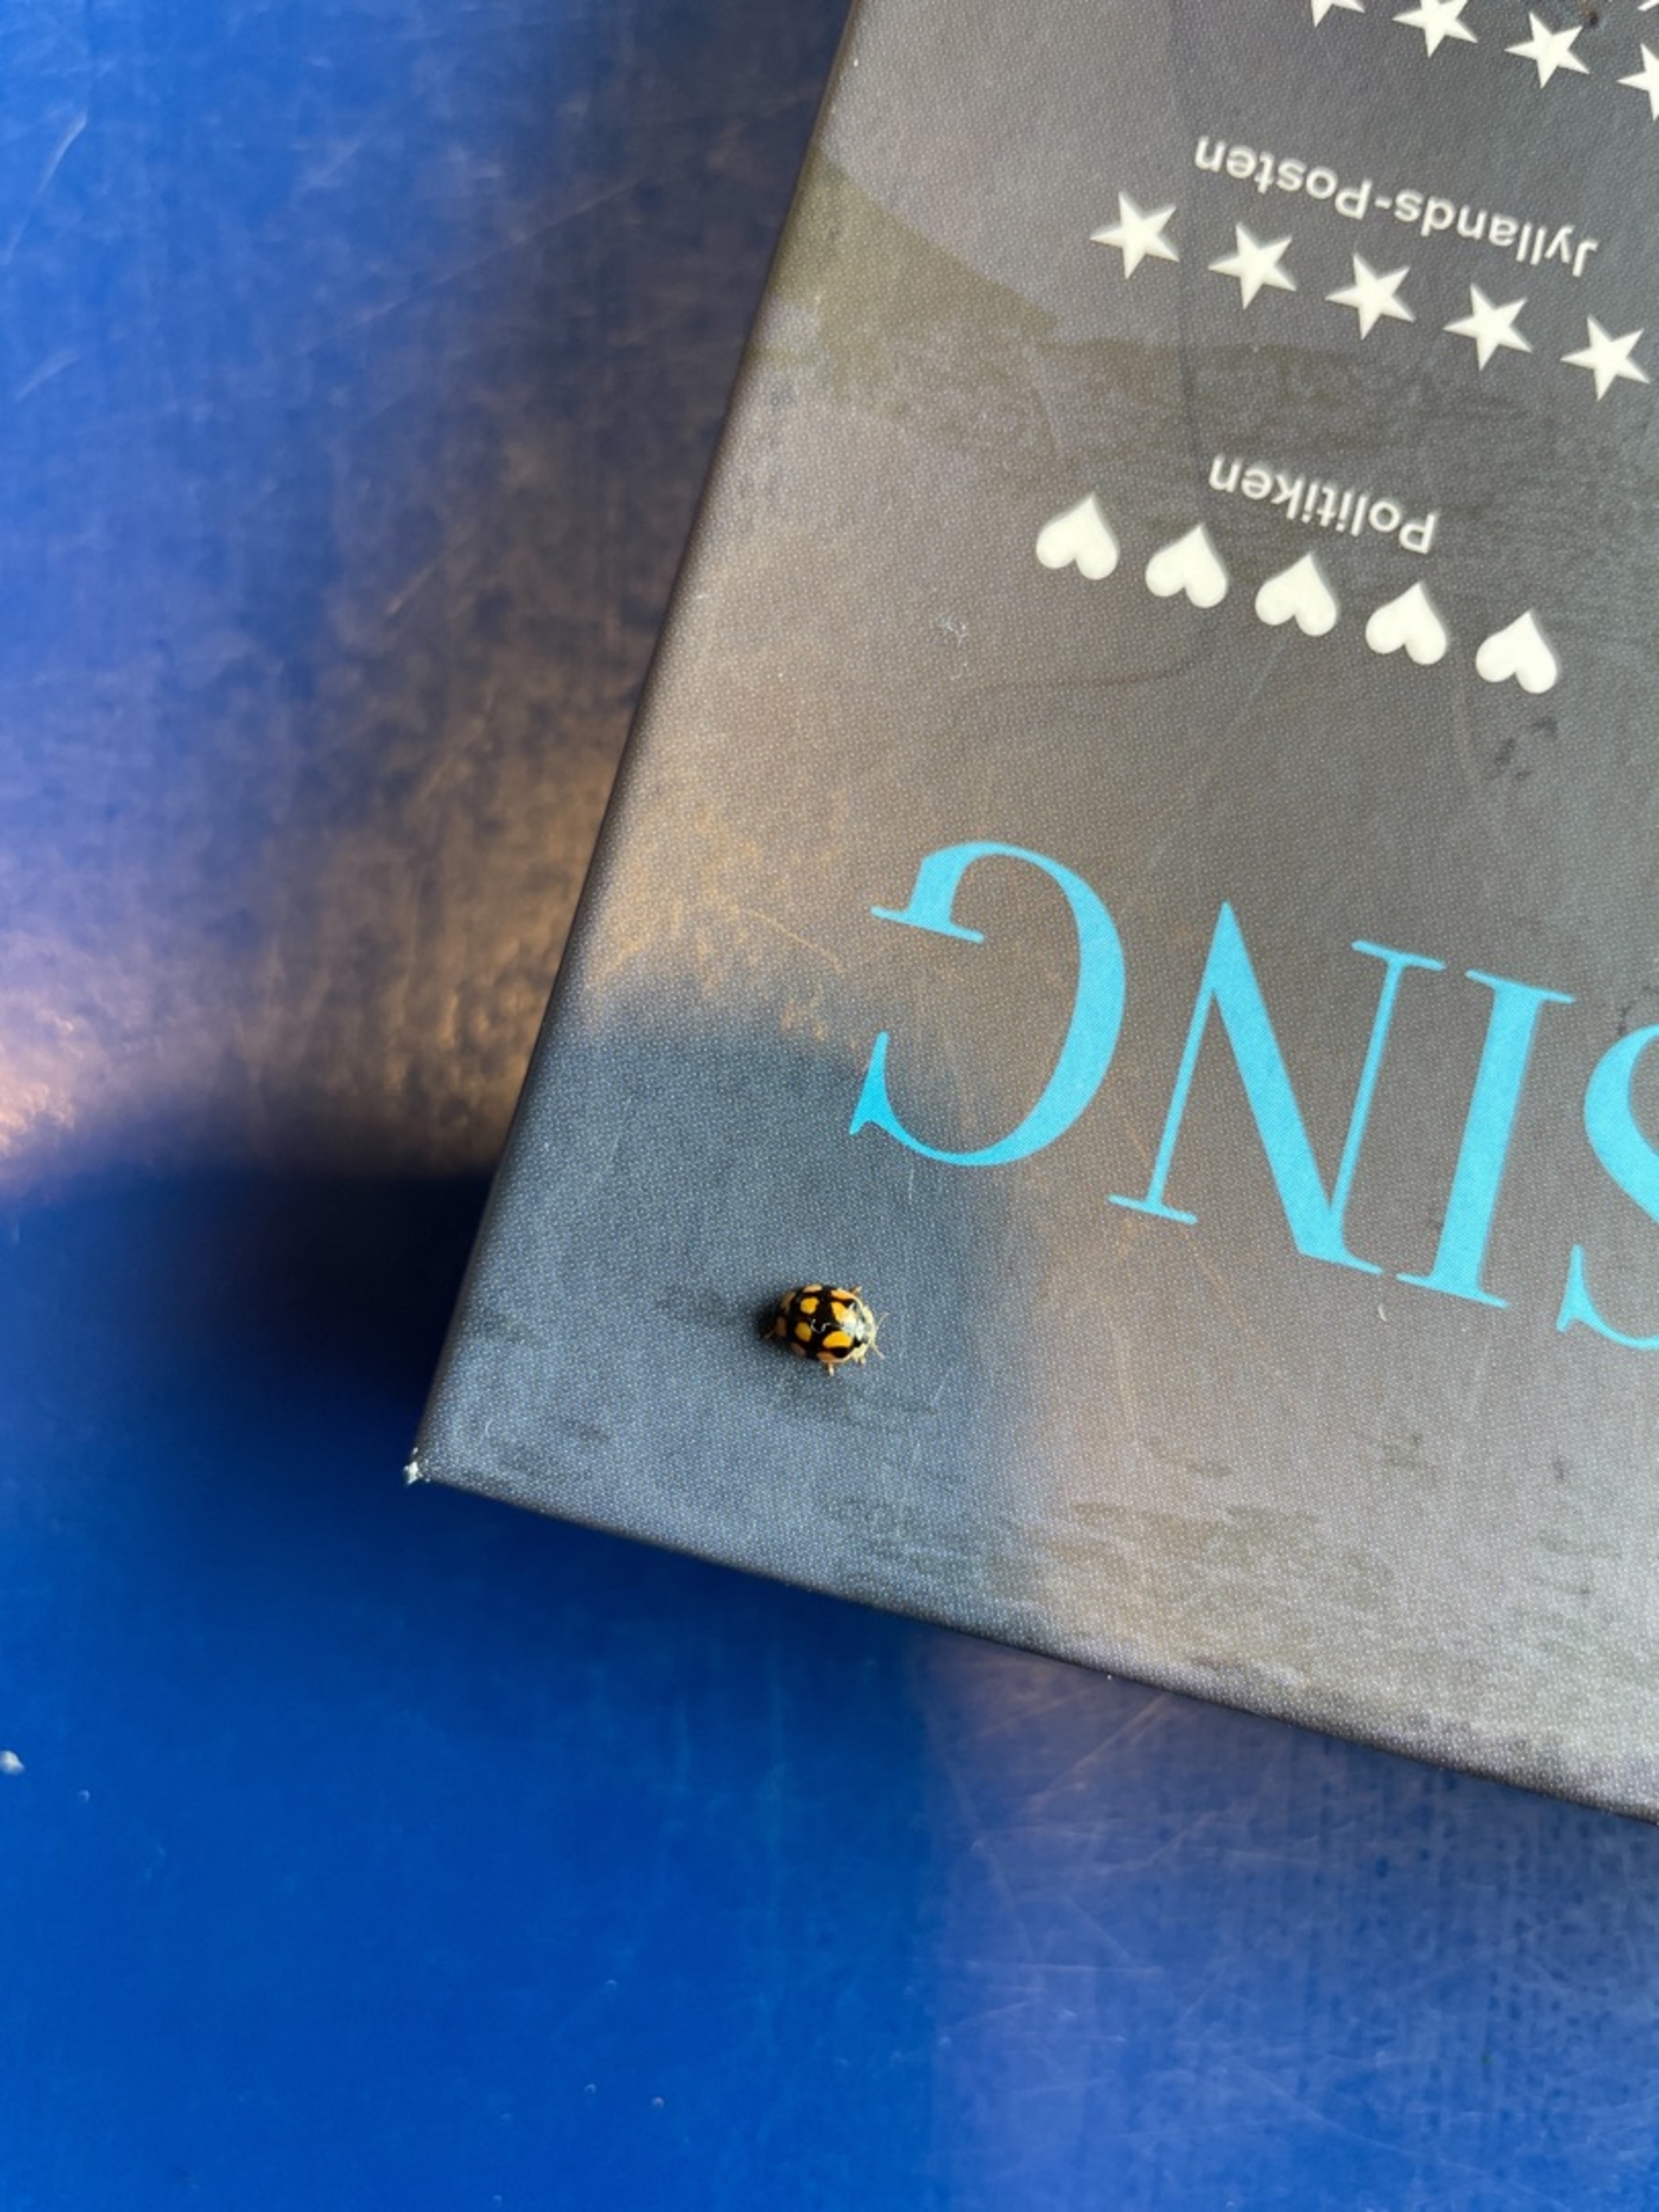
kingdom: Animalia
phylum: Arthropoda
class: Insecta
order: Coleoptera
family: Coccinellidae
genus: Adalia
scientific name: Adalia decempunctata
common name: Tiplettet mariehøne
